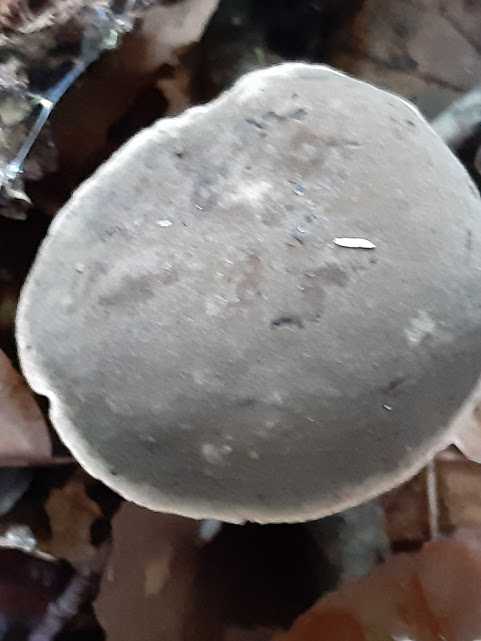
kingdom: Fungi
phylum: Basidiomycota
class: Agaricomycetes
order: Boletales
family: Boletaceae
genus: Xerocomellus
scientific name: Xerocomellus pruinatus
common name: dugget rørhat
